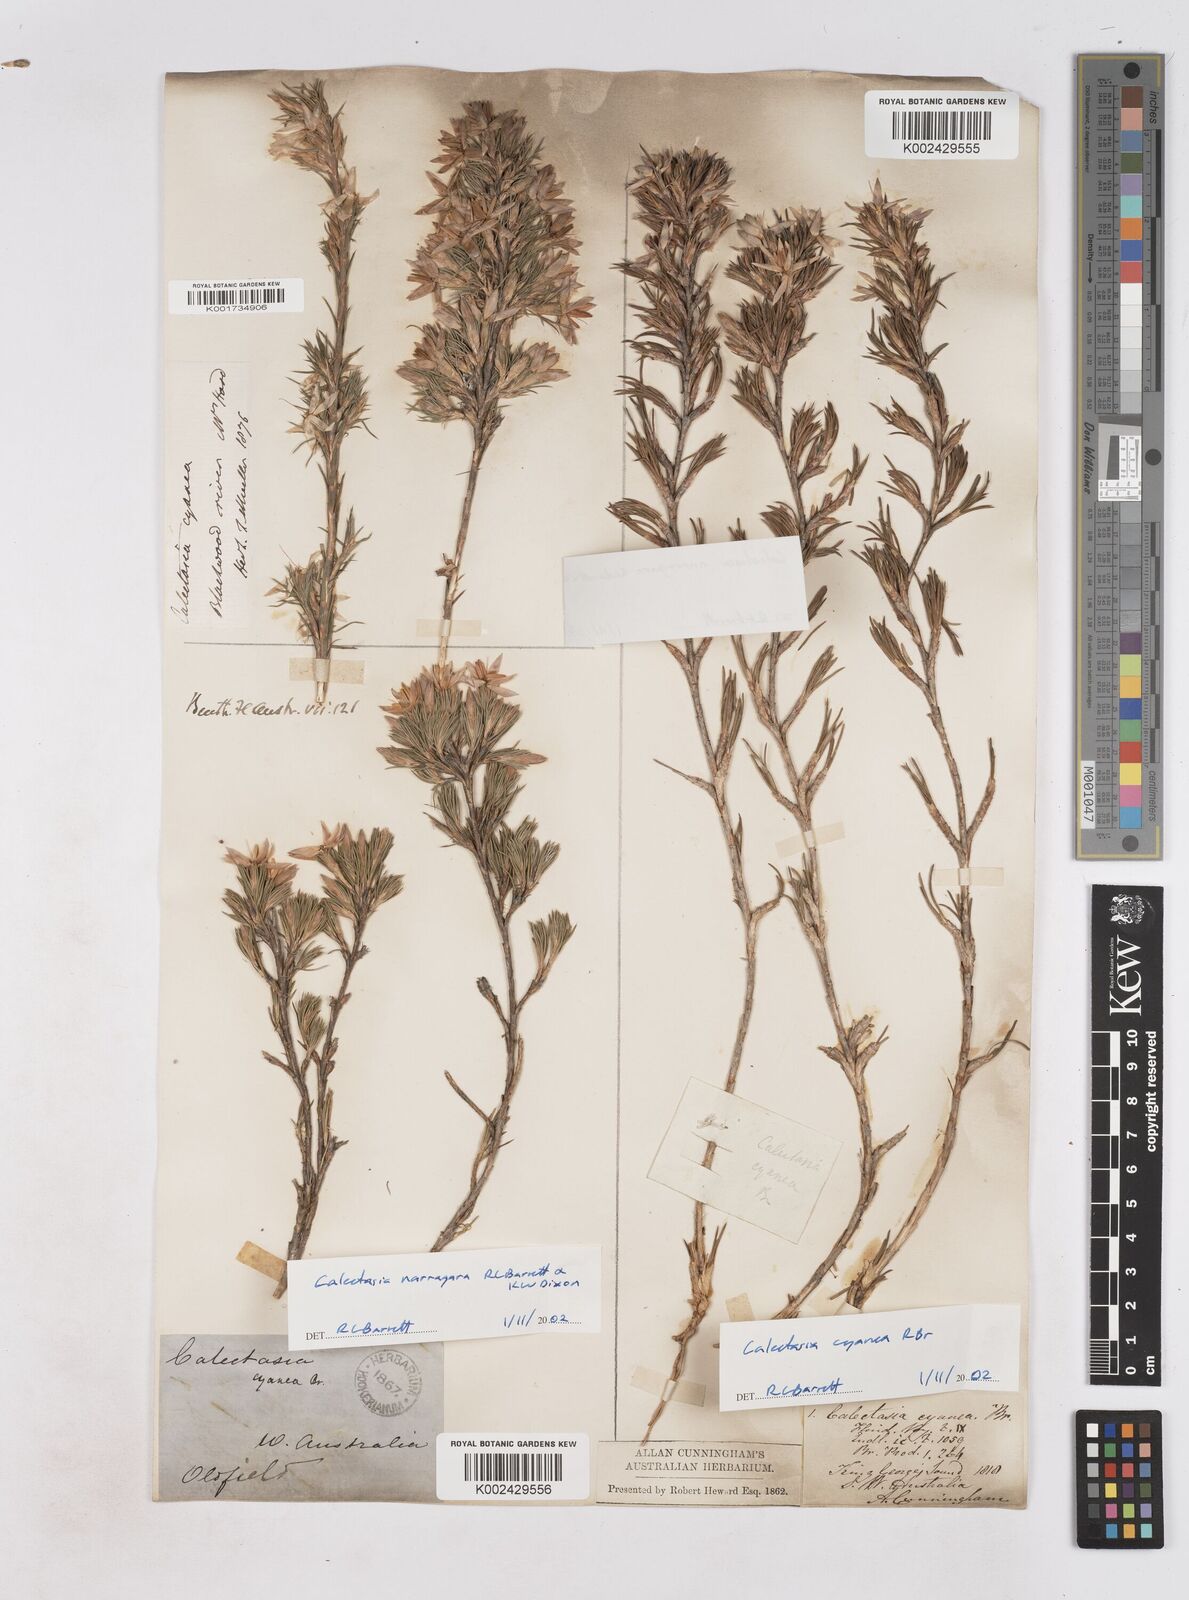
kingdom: Plantae
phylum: Tracheophyta
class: Liliopsida
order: Arecales
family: Dasypogonaceae
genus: Calectasia
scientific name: Calectasia cyanea
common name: Blue tinsel-lily
